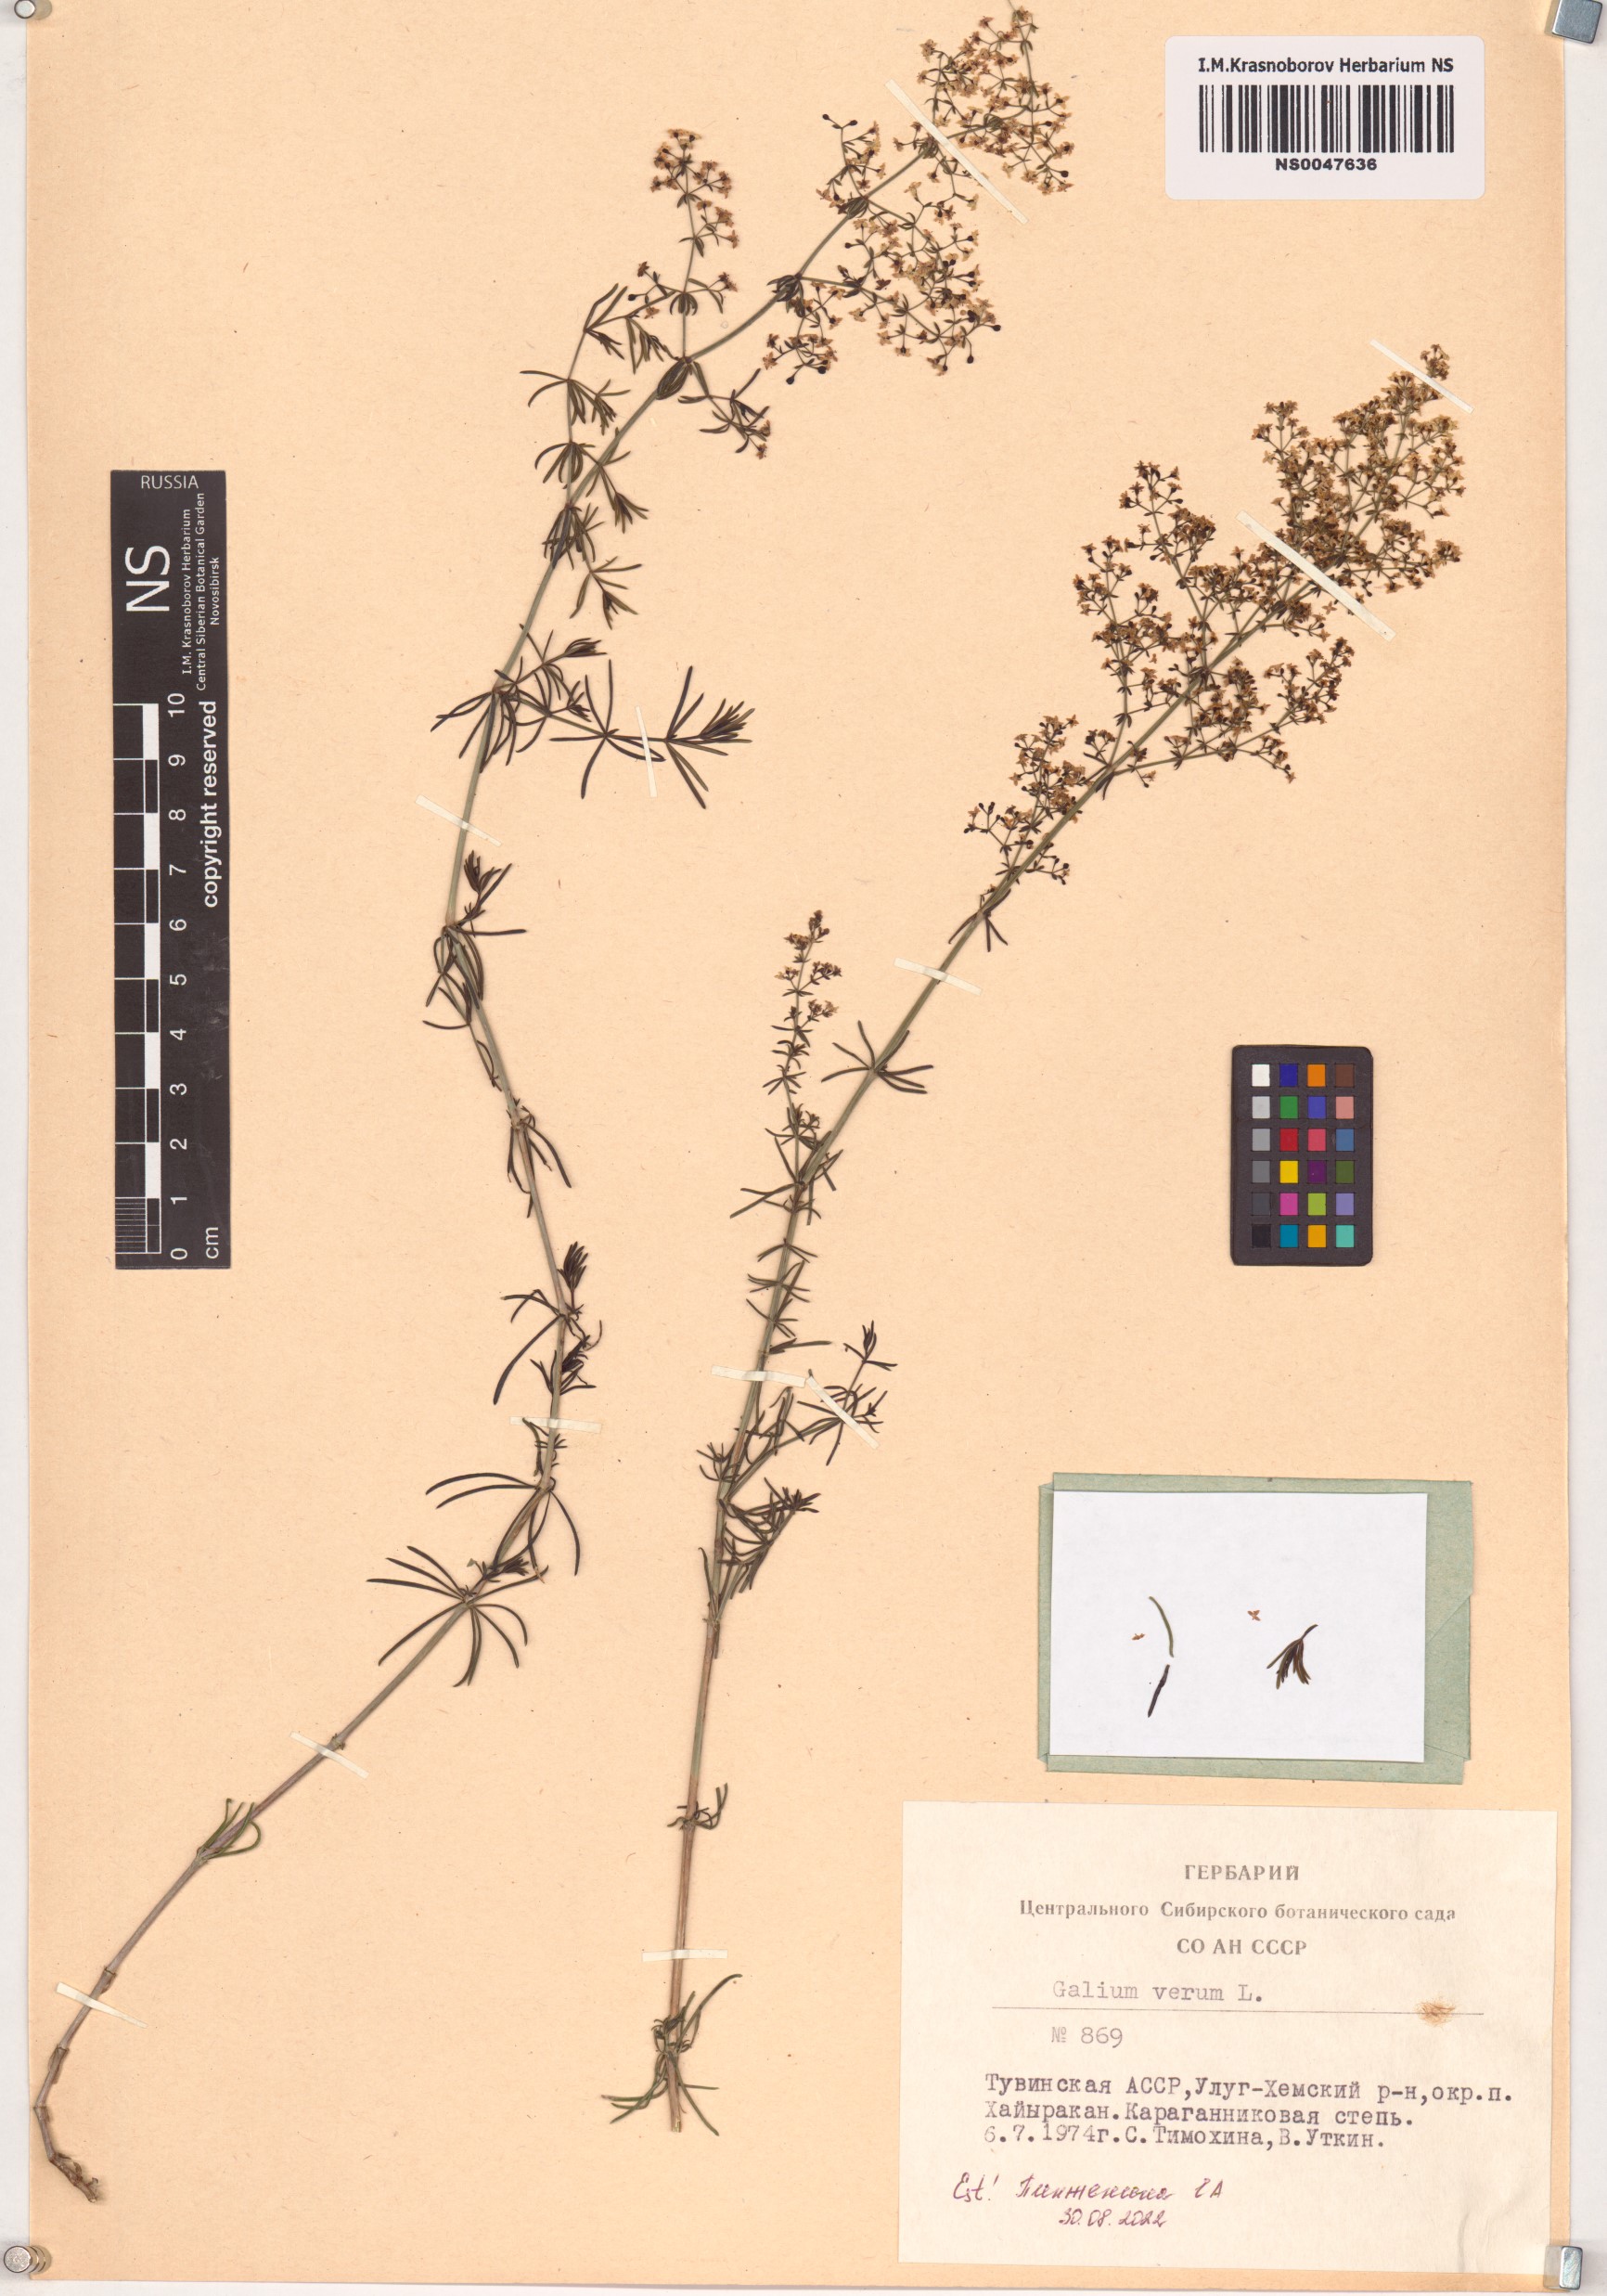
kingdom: Plantae
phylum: Tracheophyta
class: Magnoliopsida
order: Gentianales
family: Rubiaceae
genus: Galium
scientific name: Galium verum
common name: Lady's bedstraw
